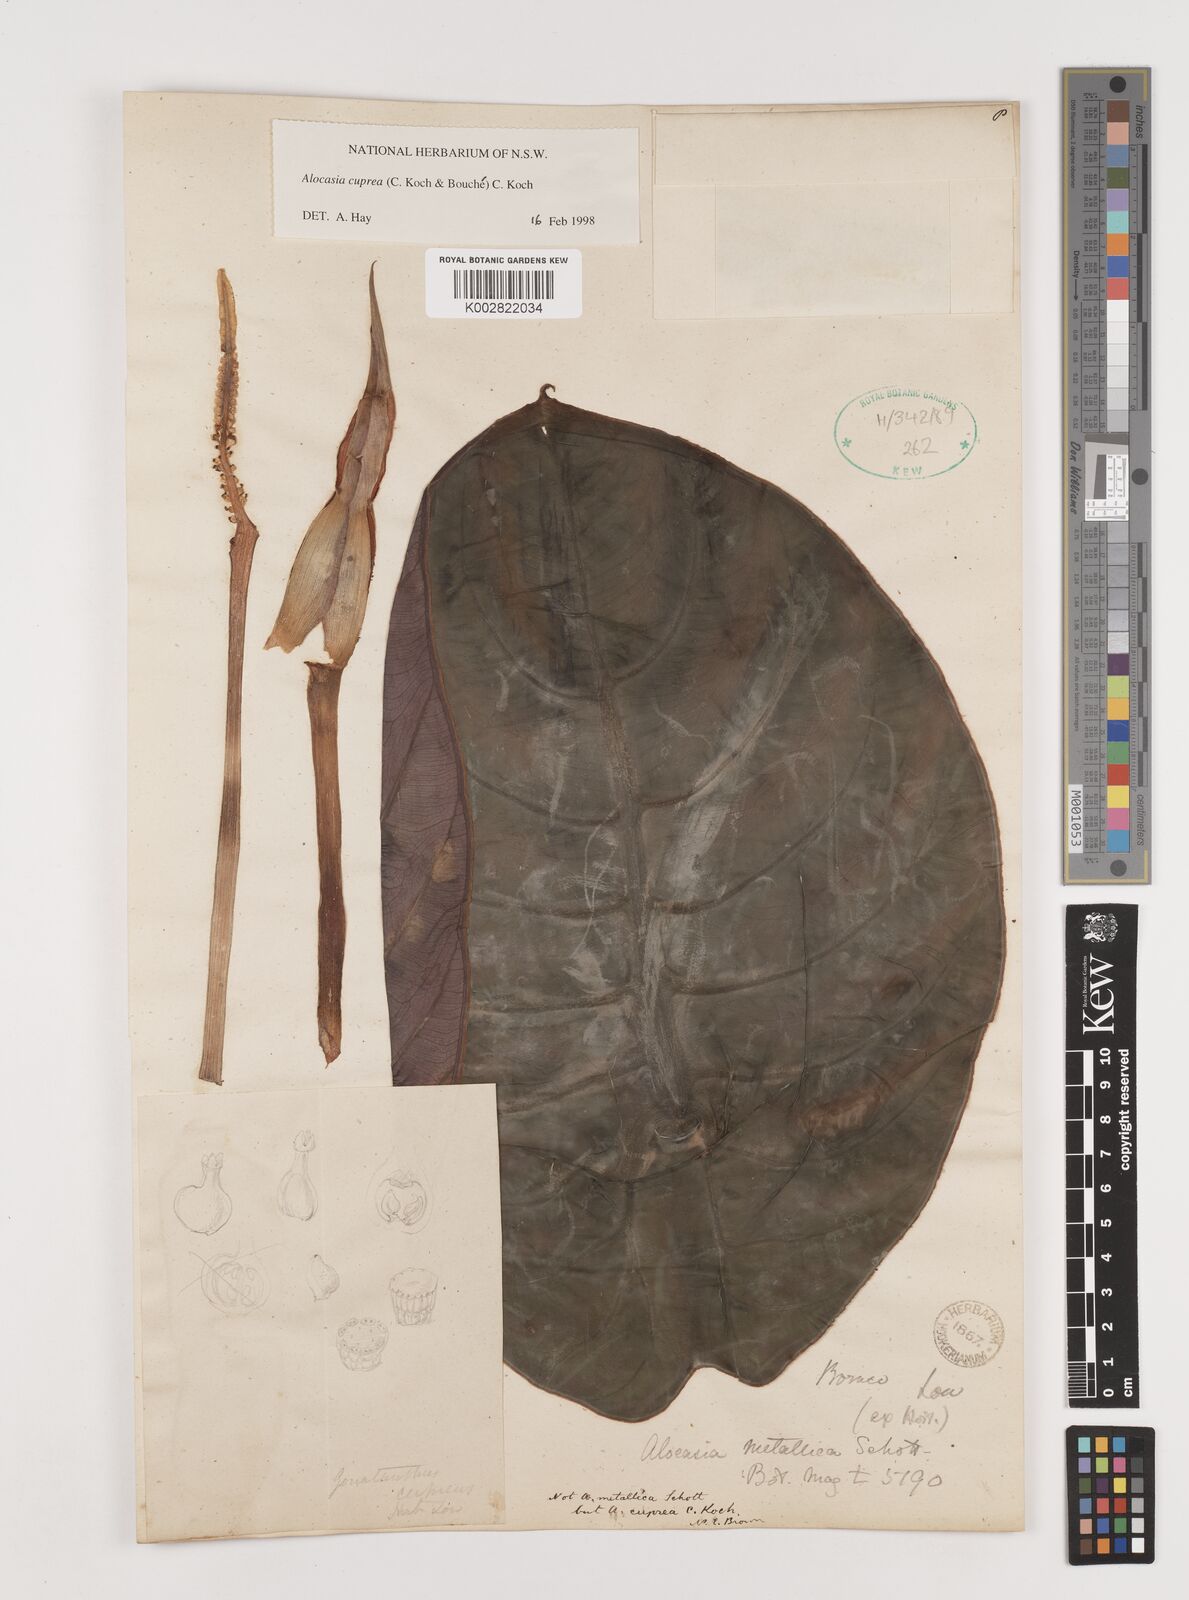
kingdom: Plantae
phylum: Tracheophyta
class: Liliopsida
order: Alismatales
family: Araceae
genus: Alocasia
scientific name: Alocasia
